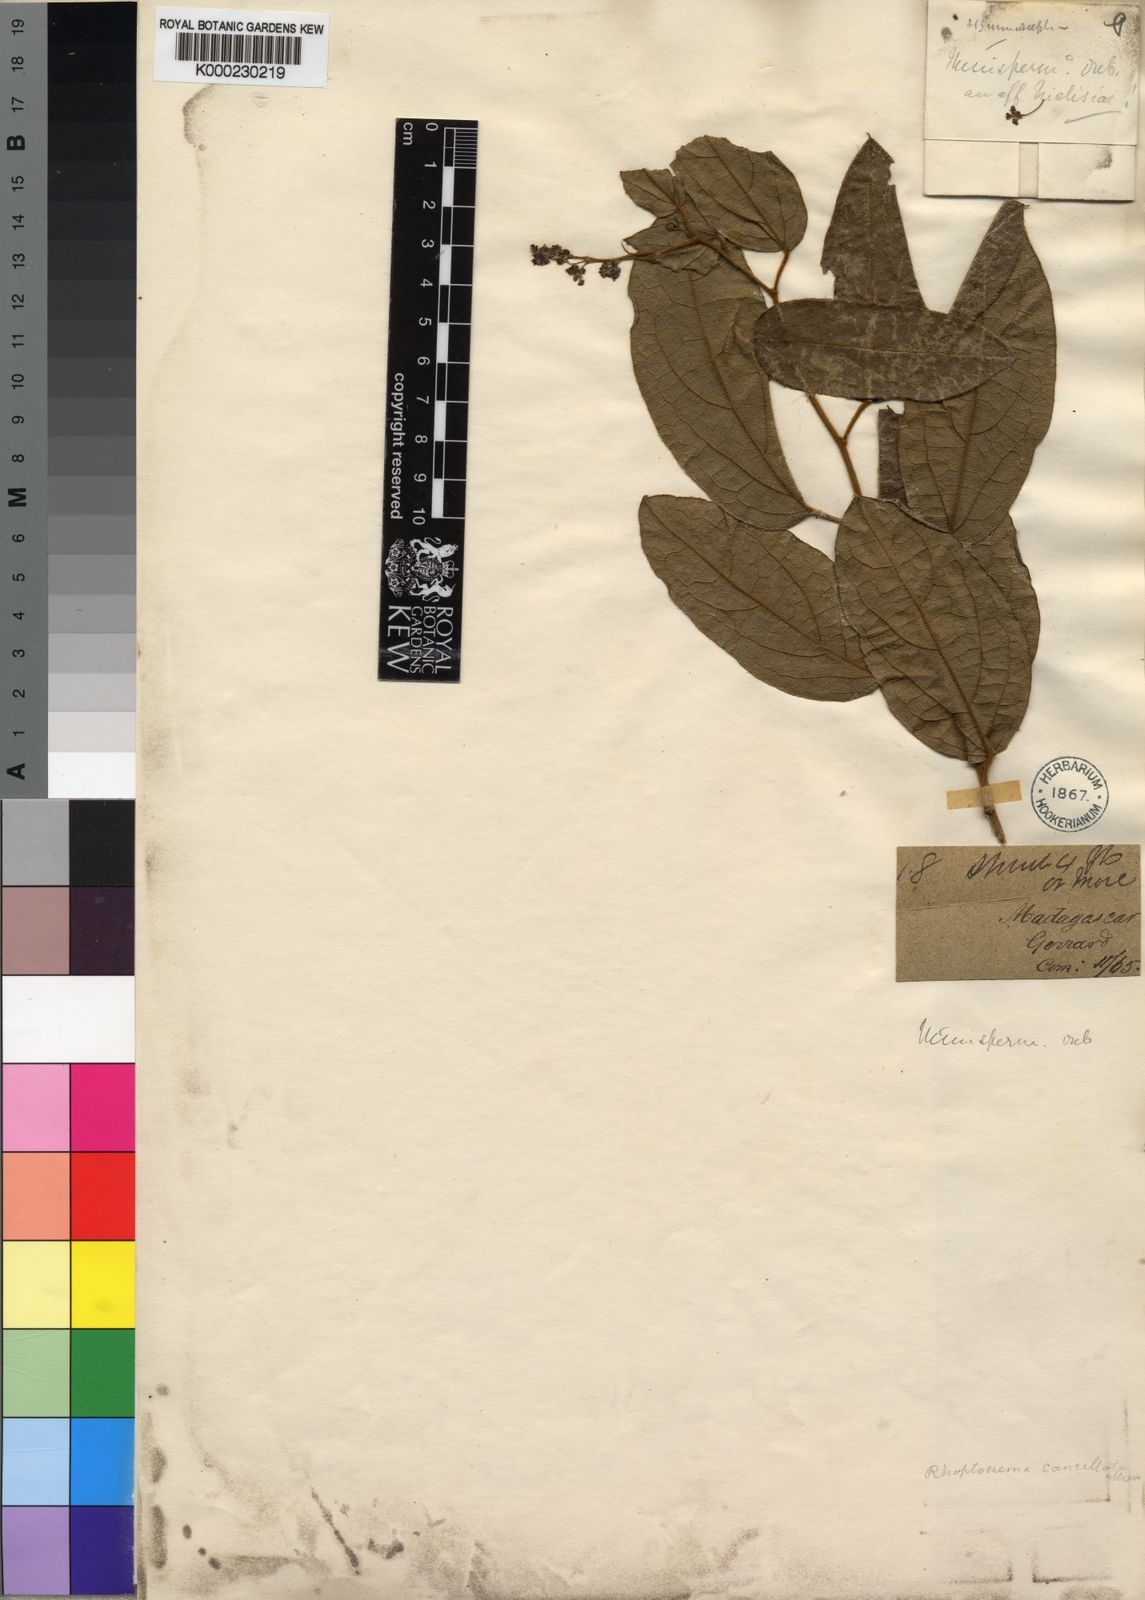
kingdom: Plantae
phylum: Tracheophyta
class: Magnoliopsida
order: Ranunculales
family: Menispermaceae
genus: Rhaptonema
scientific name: Rhaptonema cancellata
